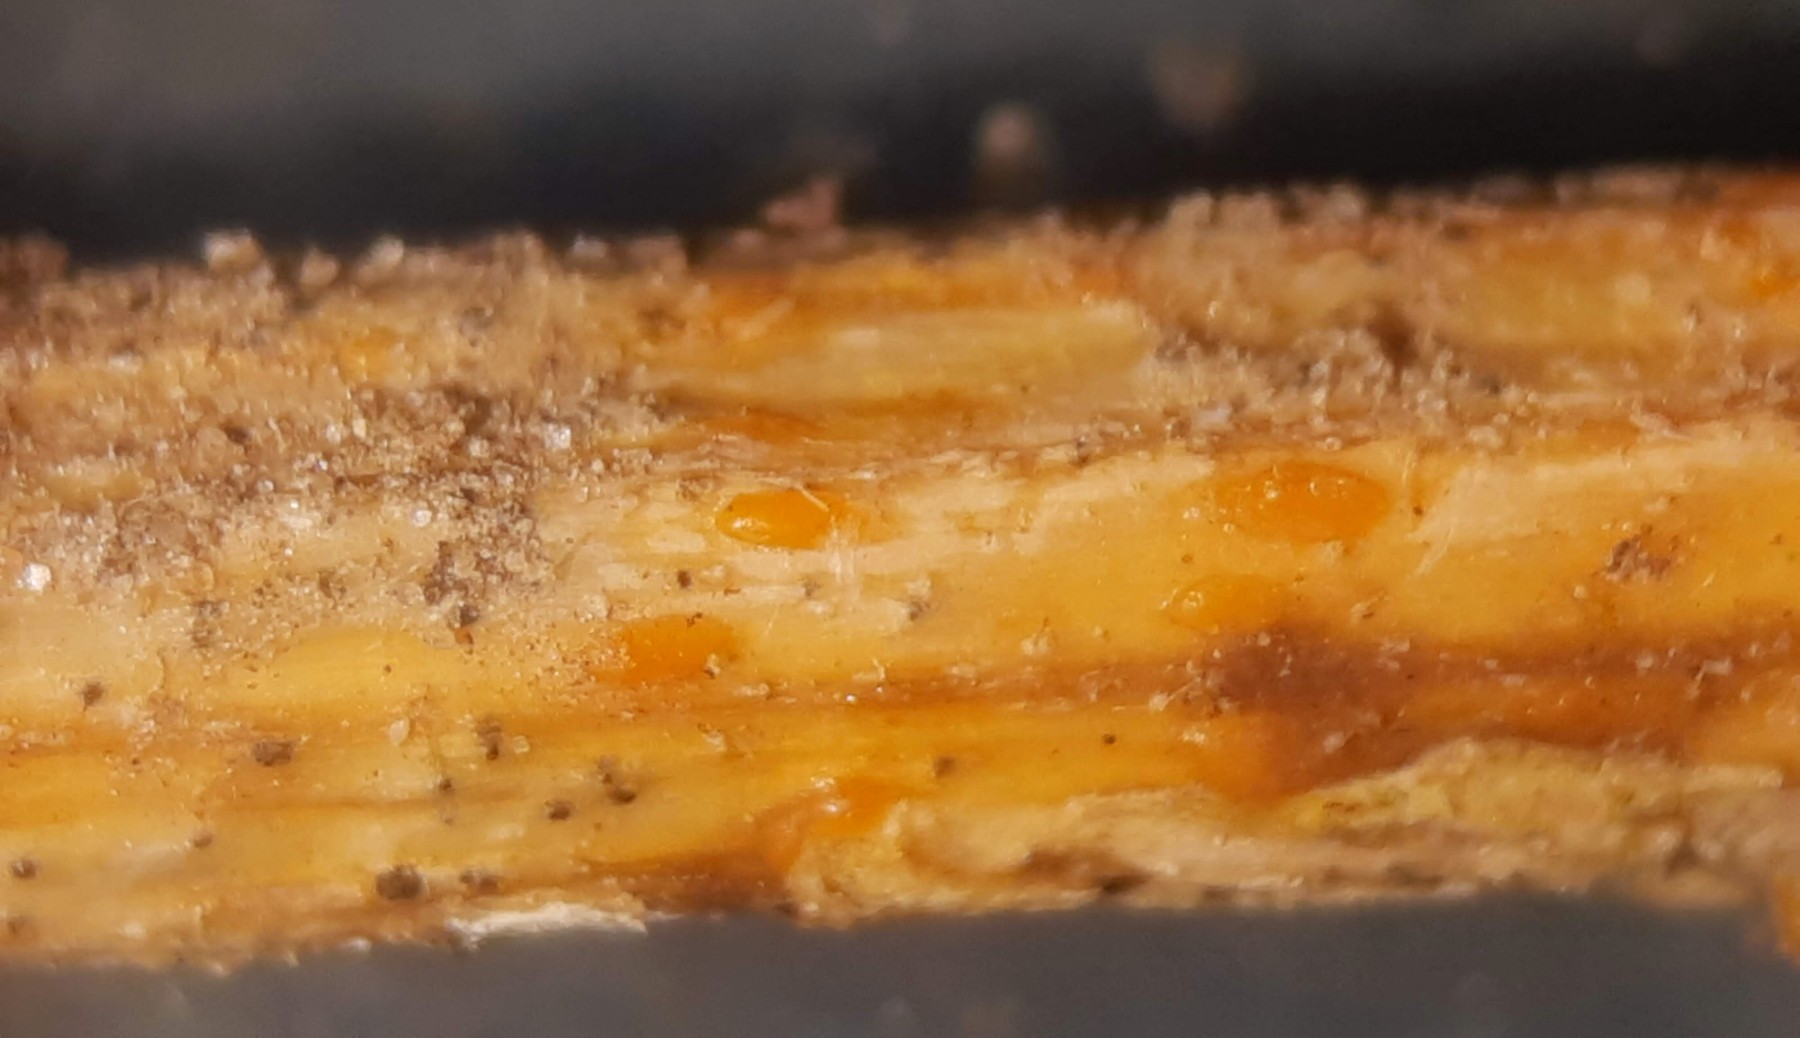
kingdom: Fungi
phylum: Ascomycota
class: Leotiomycetes
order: Helotiales
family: Calloriaceae
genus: Calloria
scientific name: Calloria urticae
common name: nælde-orangeskive
